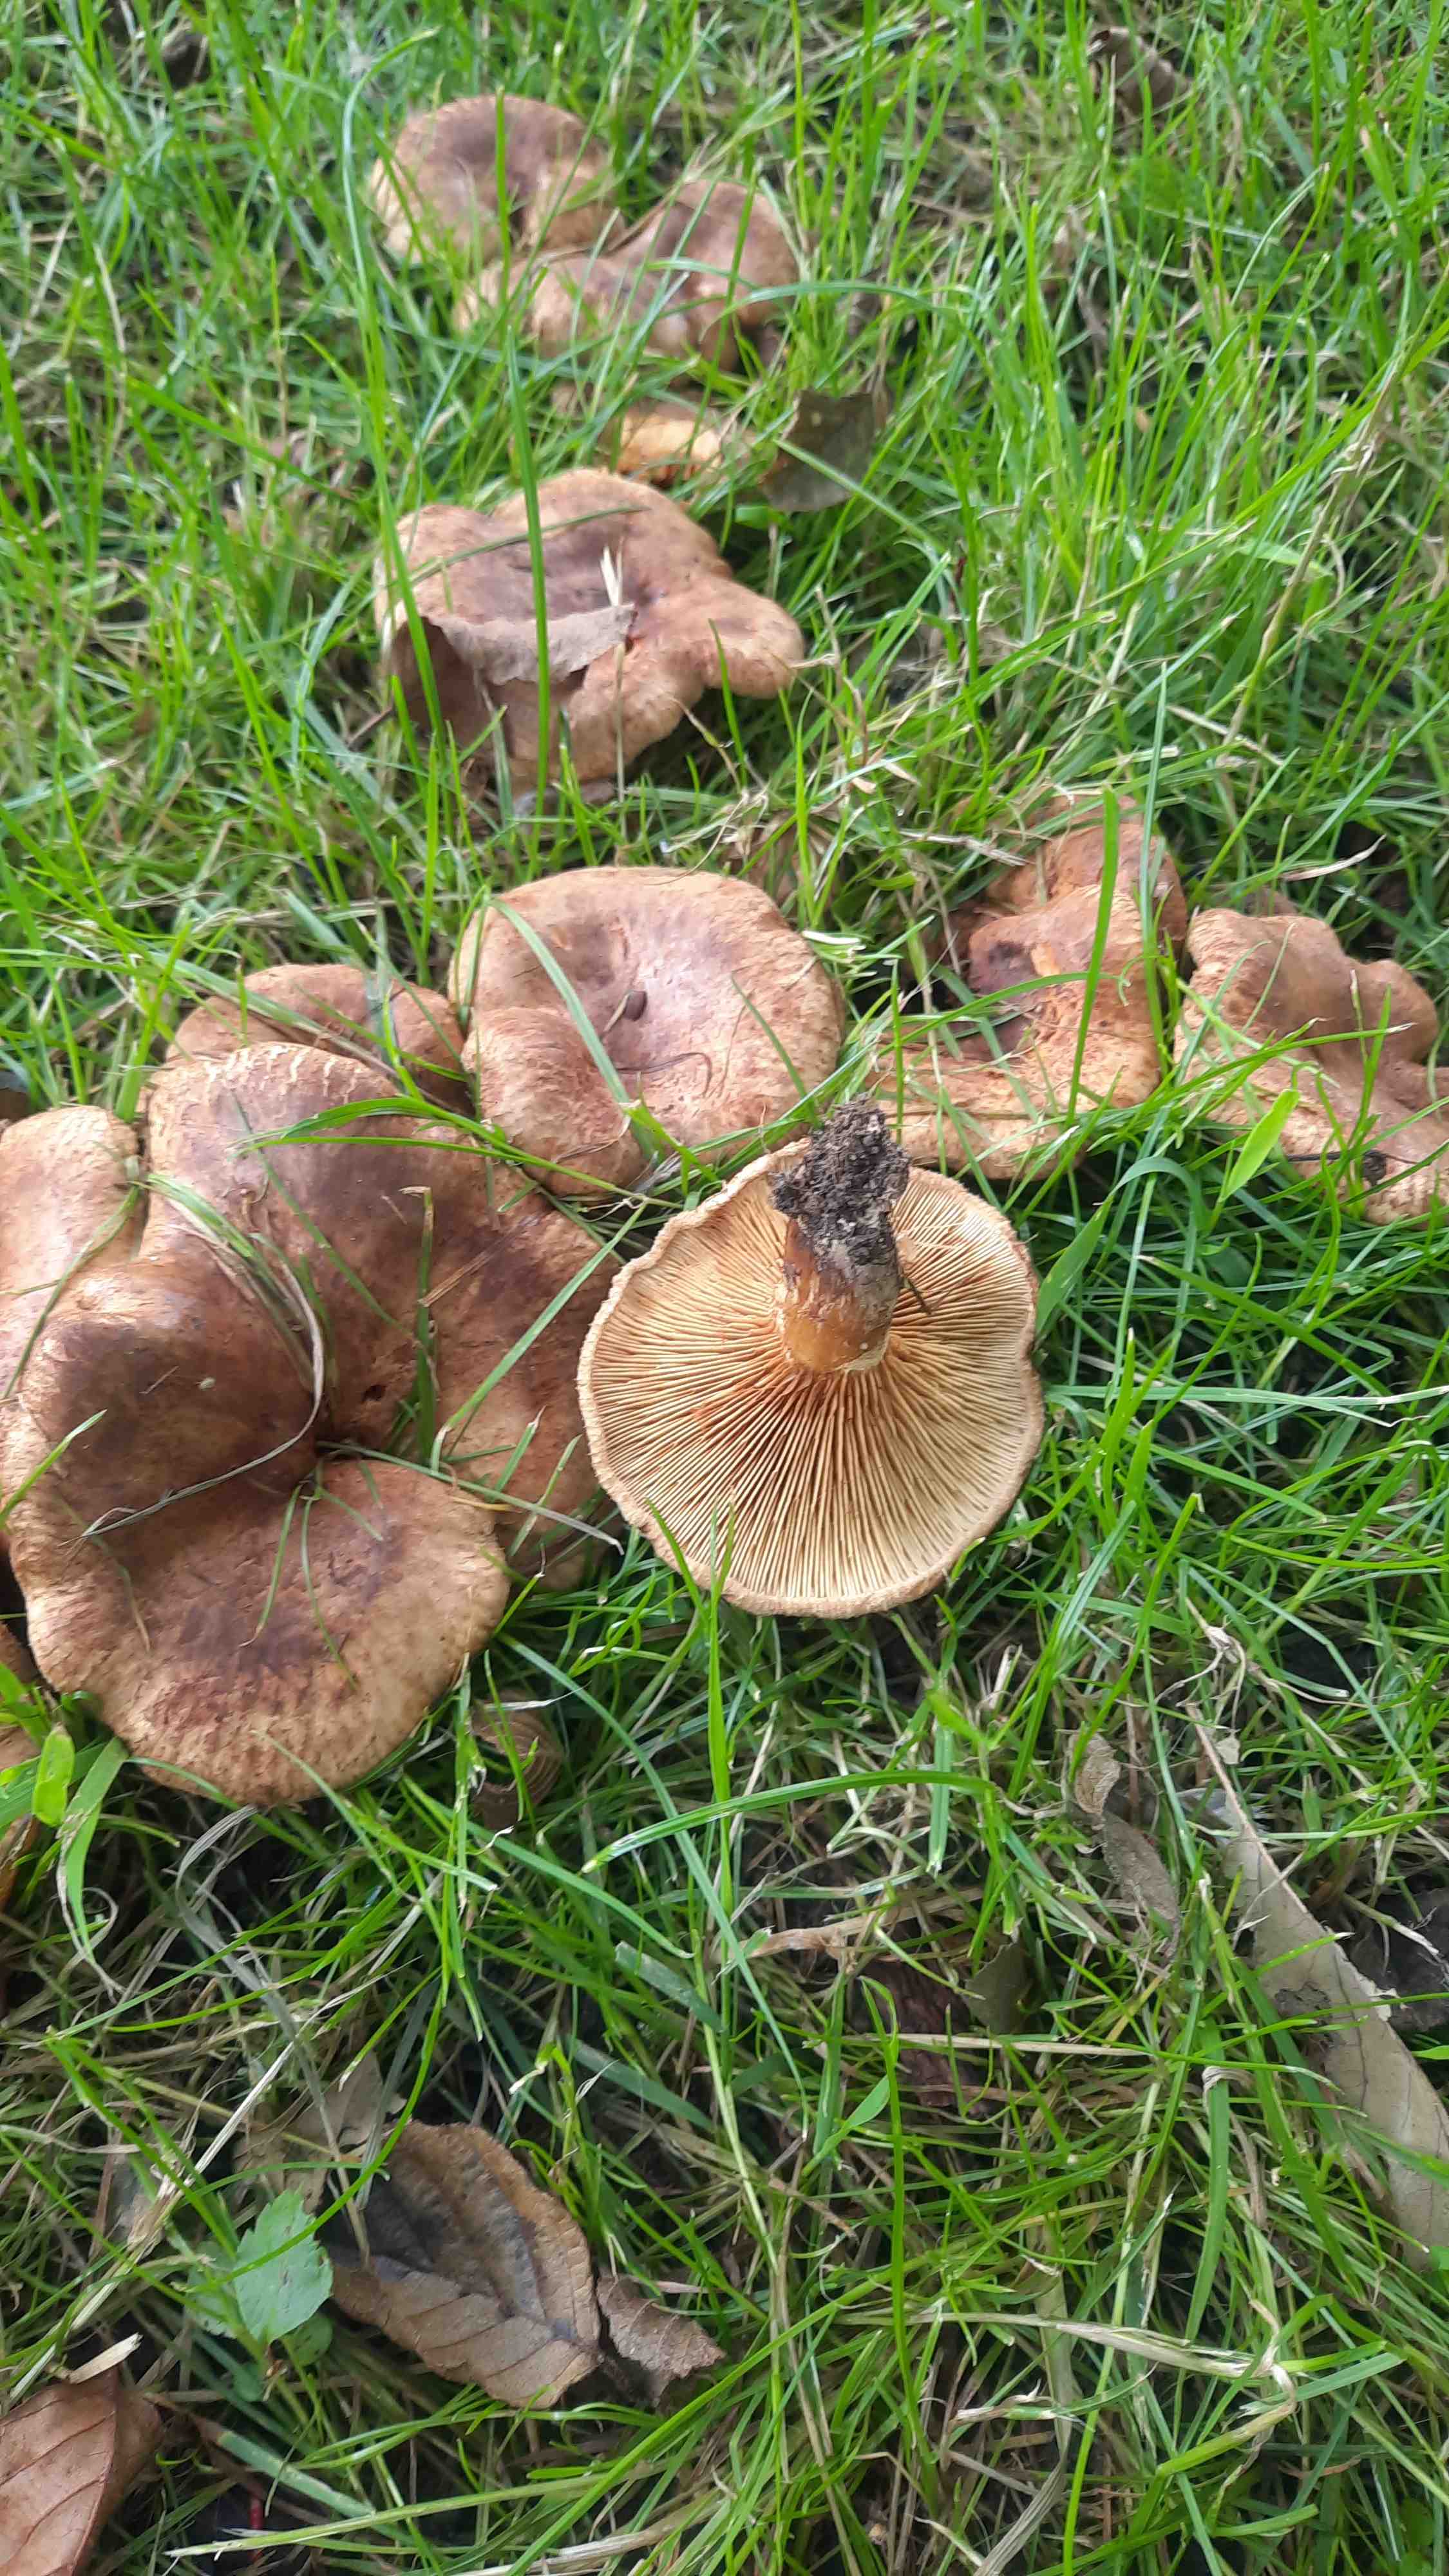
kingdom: Fungi
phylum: Basidiomycota
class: Agaricomycetes
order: Boletales
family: Paxillaceae
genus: Paxillus
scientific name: Paxillus
